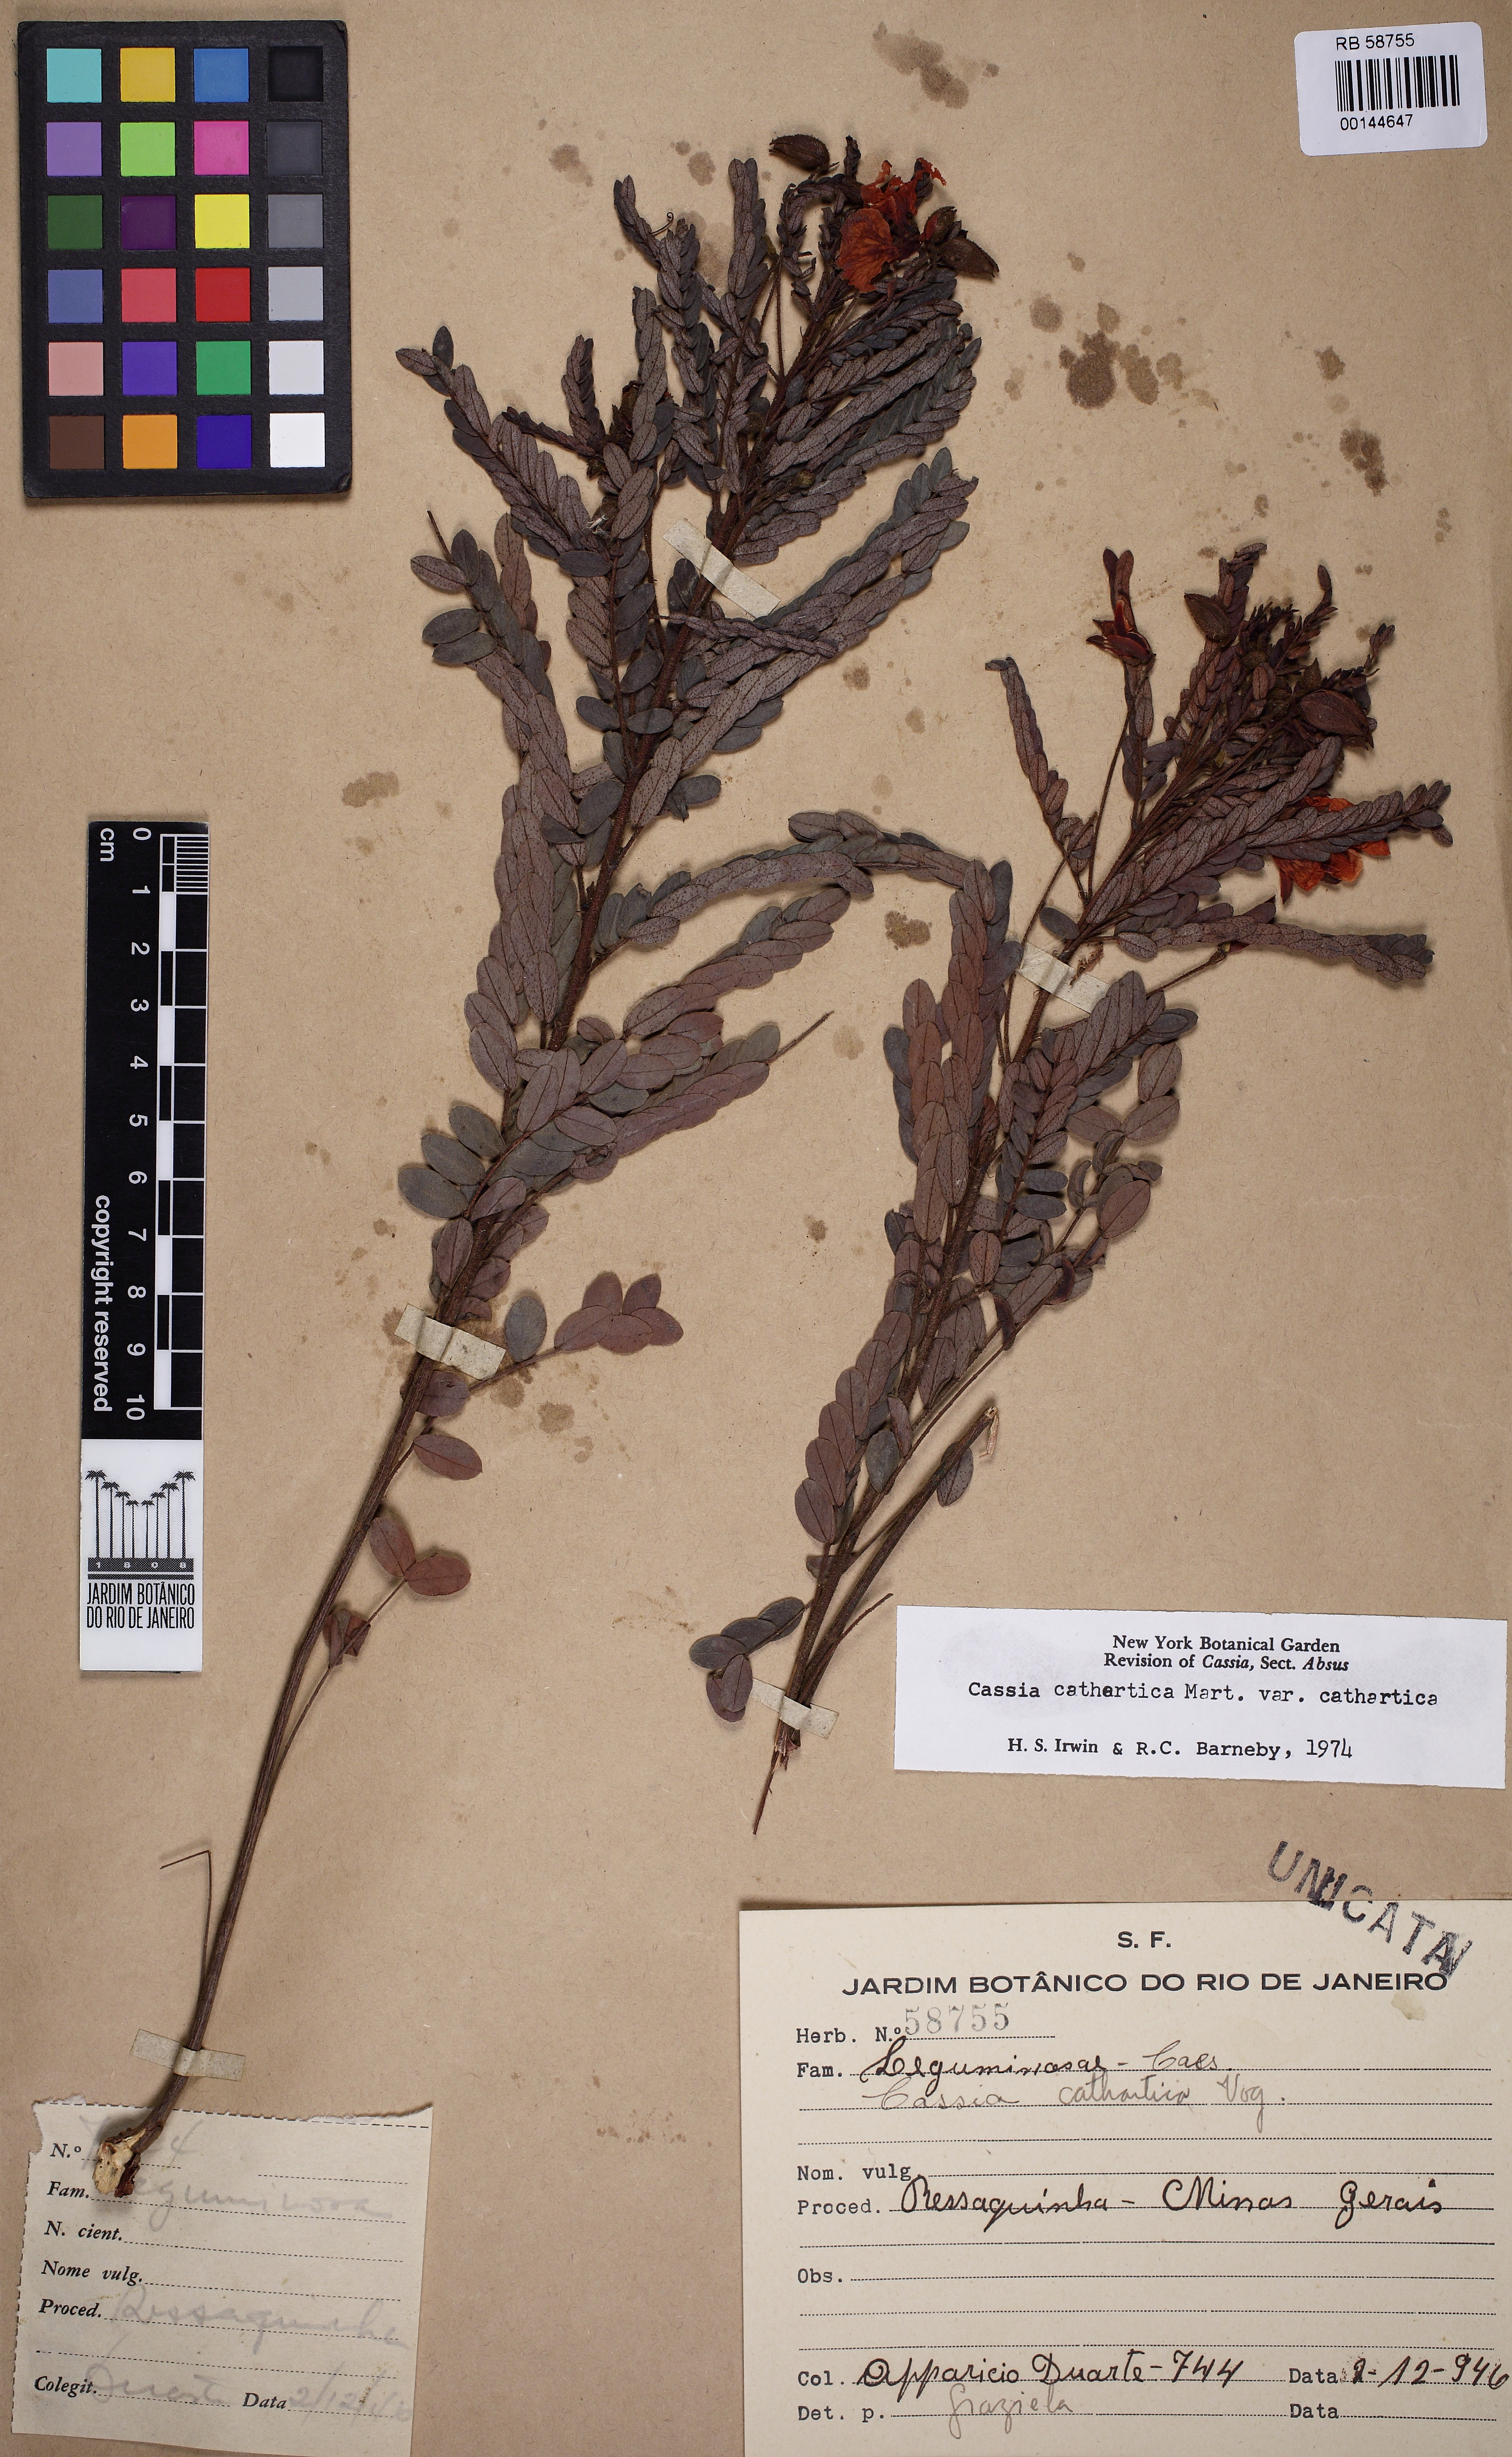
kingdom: Plantae
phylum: Tracheophyta
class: Magnoliopsida
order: Fabales
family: Fabaceae
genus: Chamaecrista
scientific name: Chamaecrista cathartica
